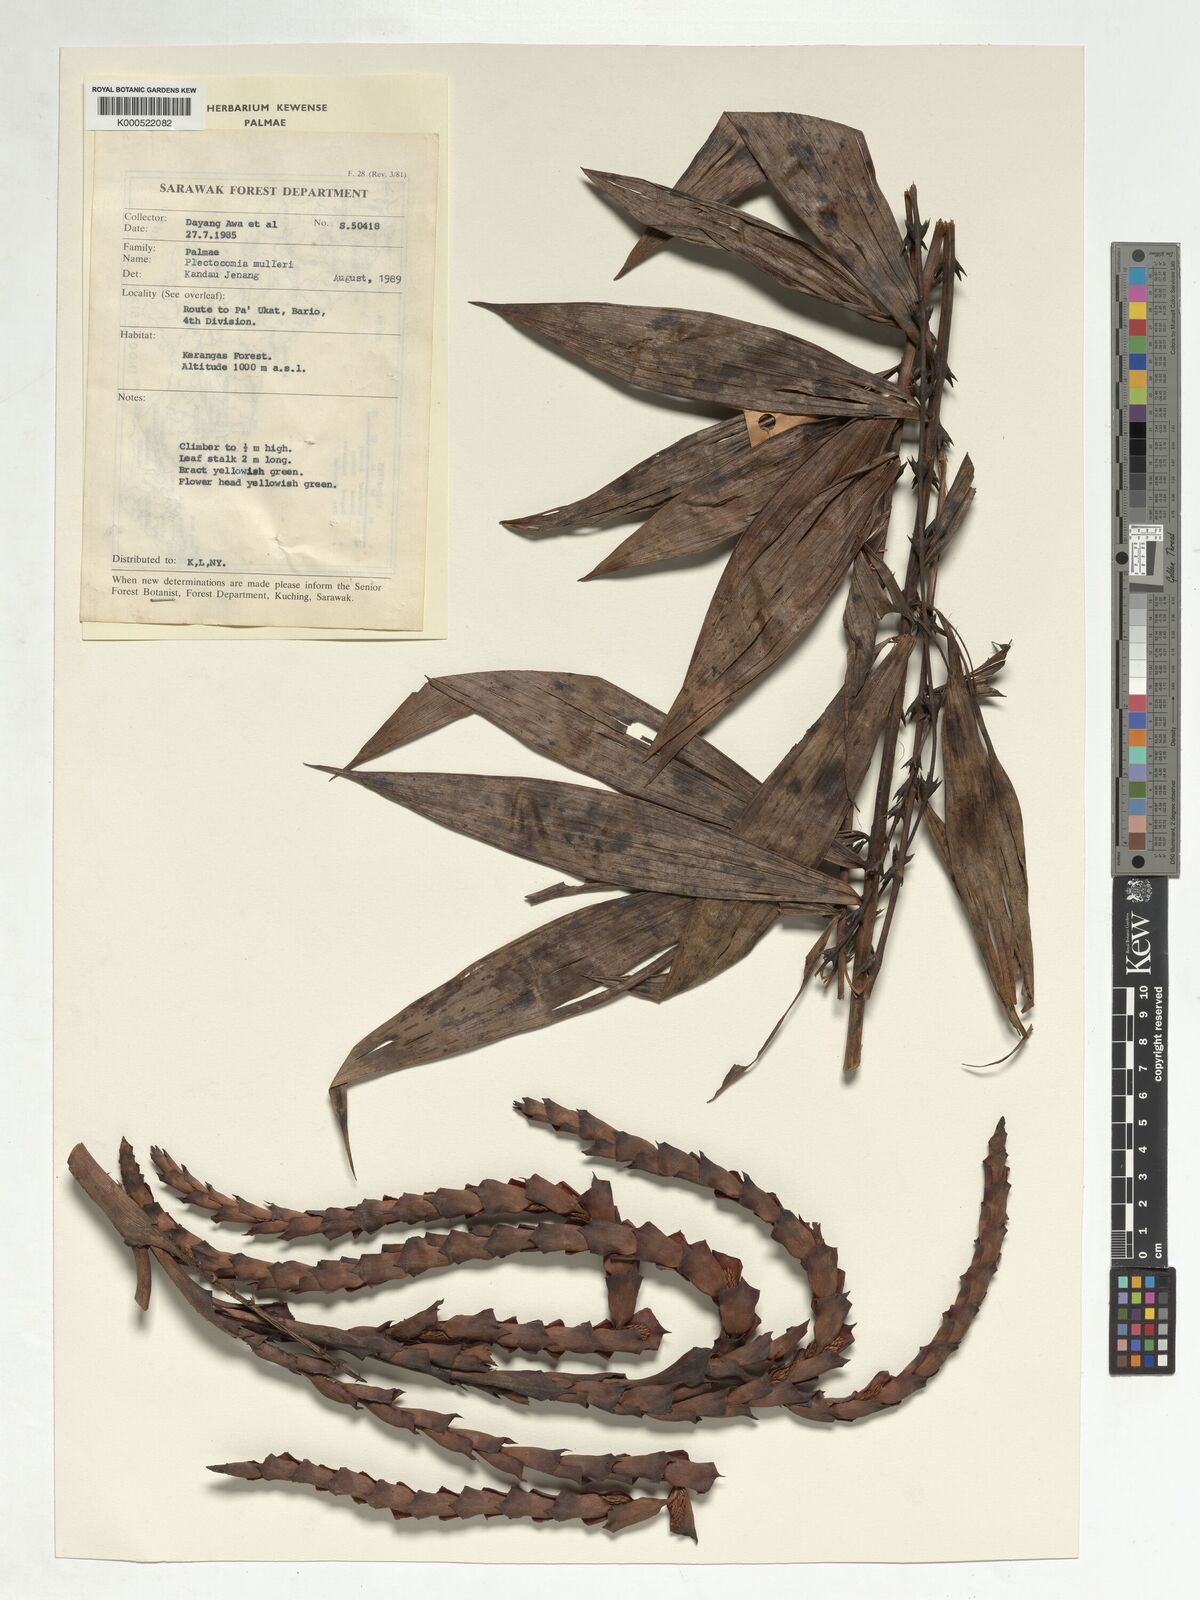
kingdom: Plantae
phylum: Tracheophyta
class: Liliopsida
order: Arecales
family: Arecaceae
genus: Plectocomia
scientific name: Plectocomia mulleri
